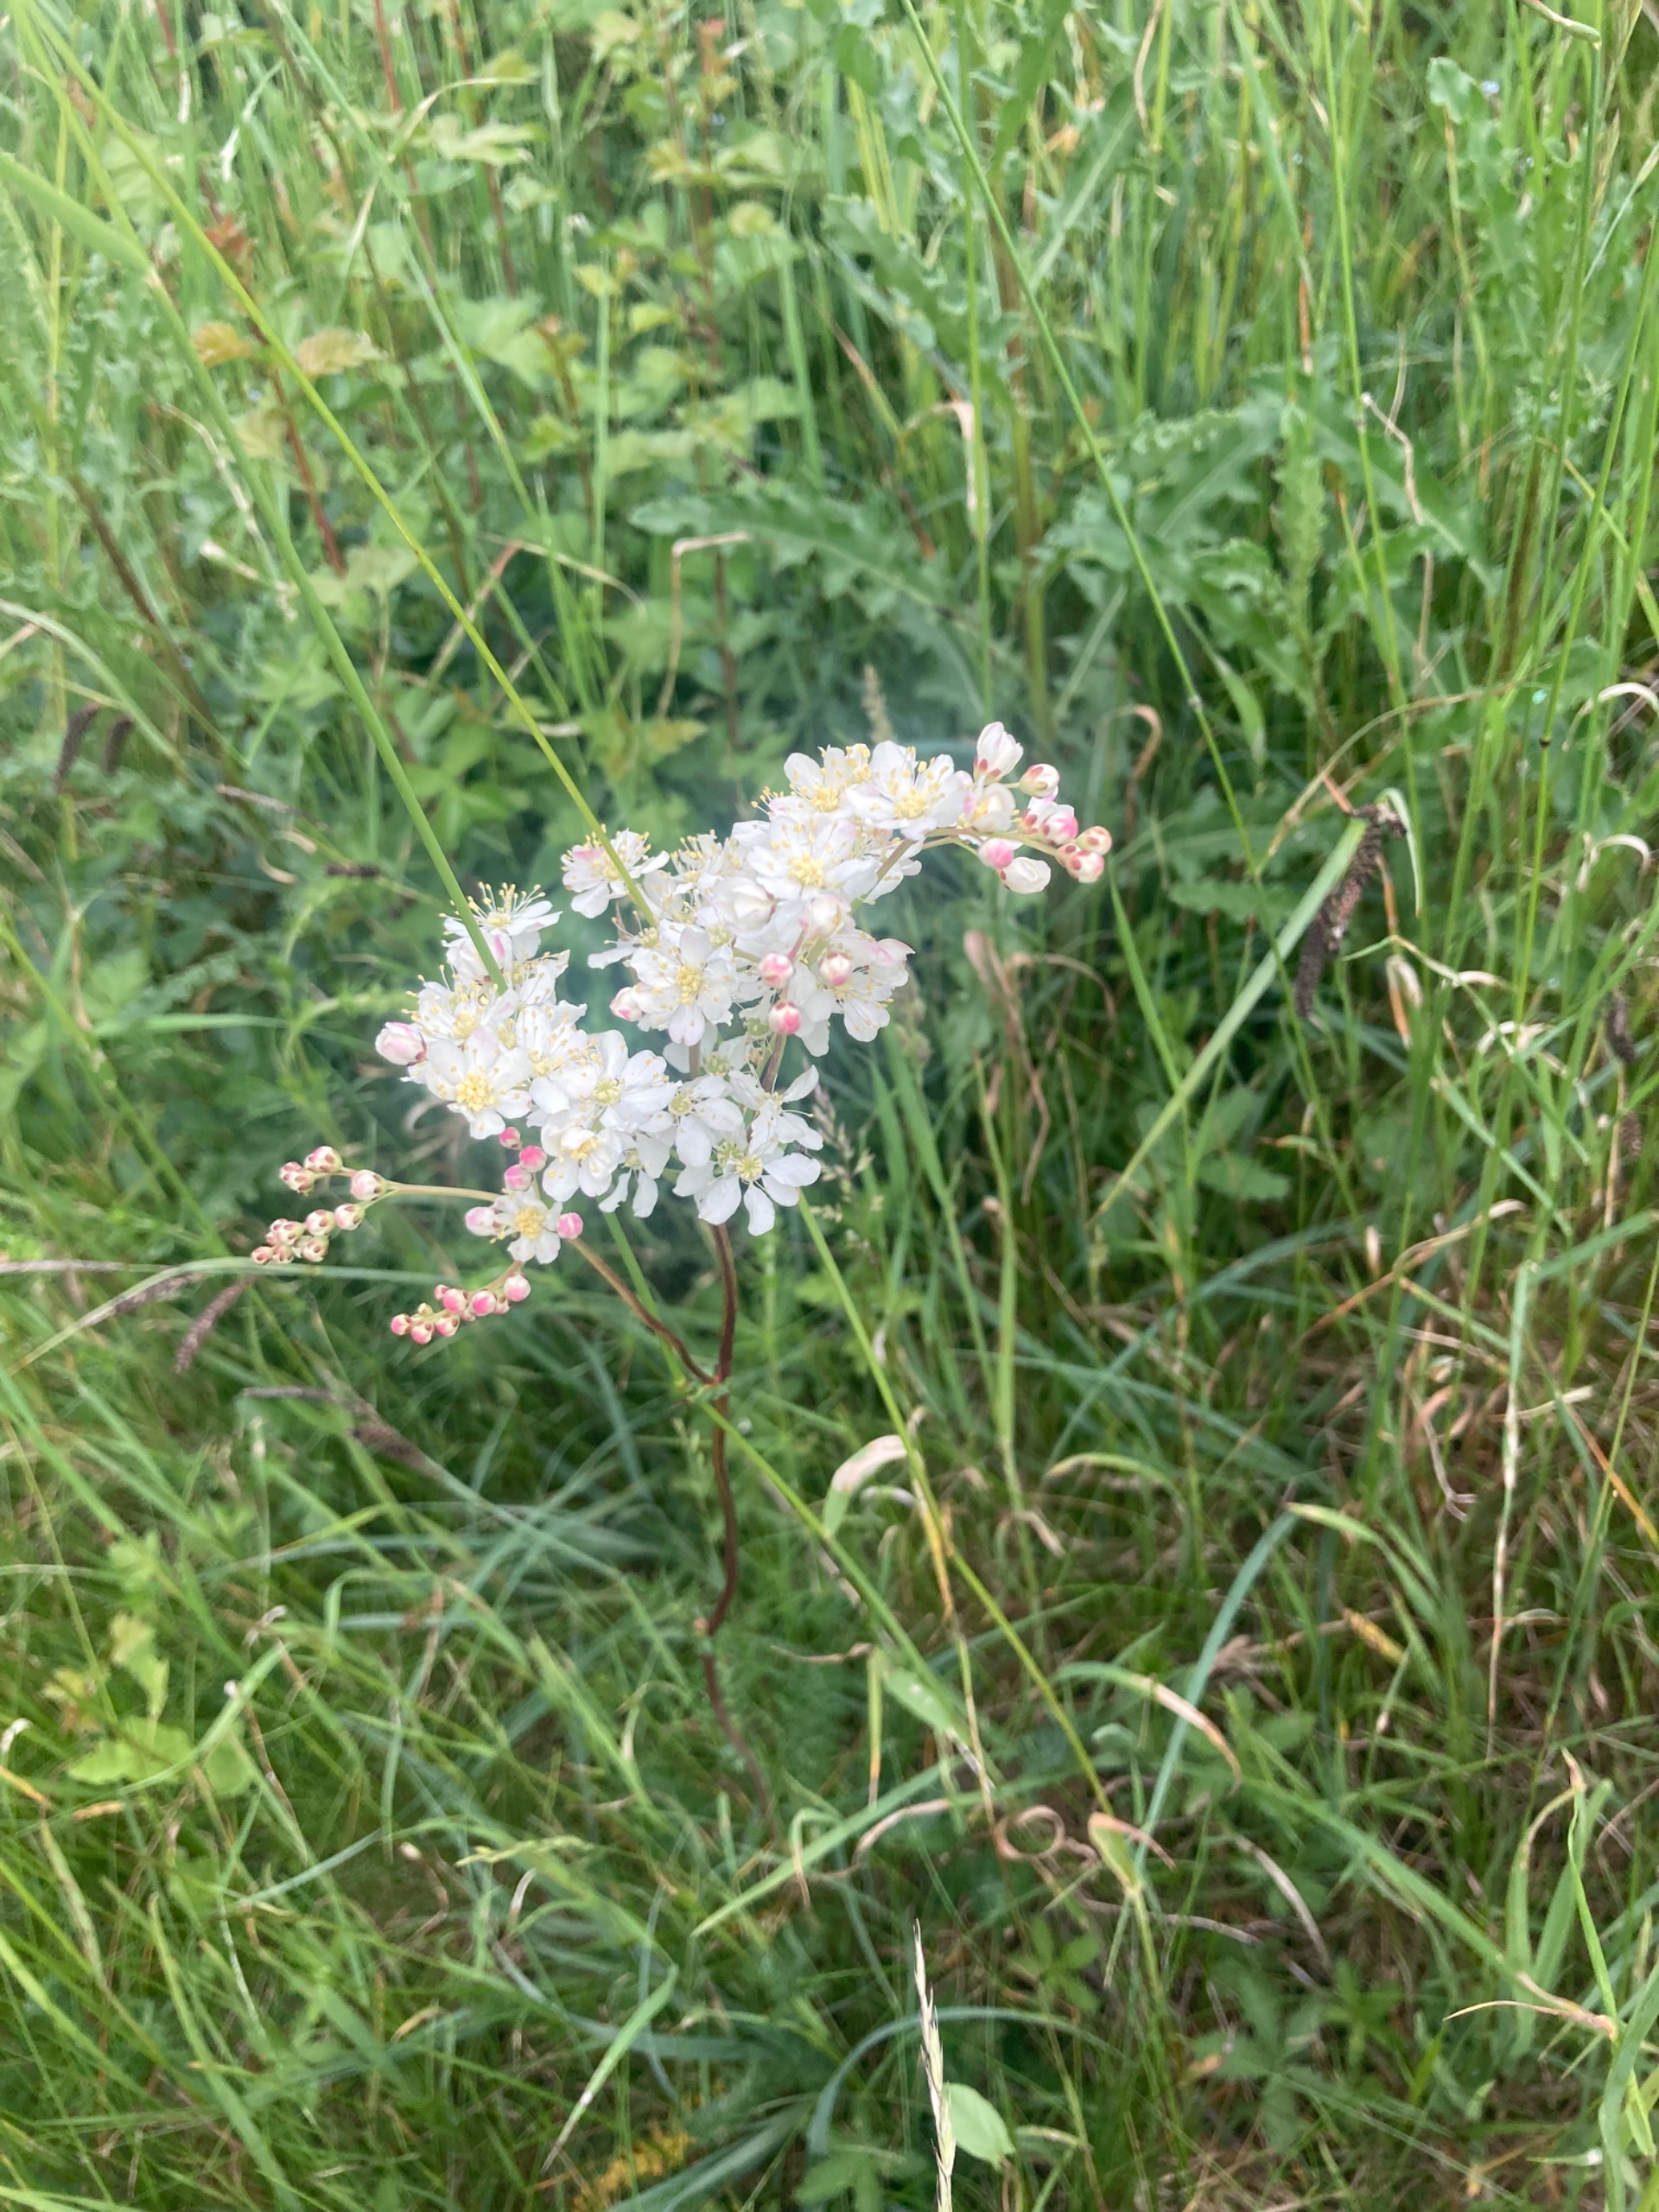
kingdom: Plantae
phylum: Tracheophyta
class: Magnoliopsida
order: Rosales
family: Rosaceae
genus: Filipendula
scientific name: Filipendula vulgaris
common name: Knoldet mjødurt
